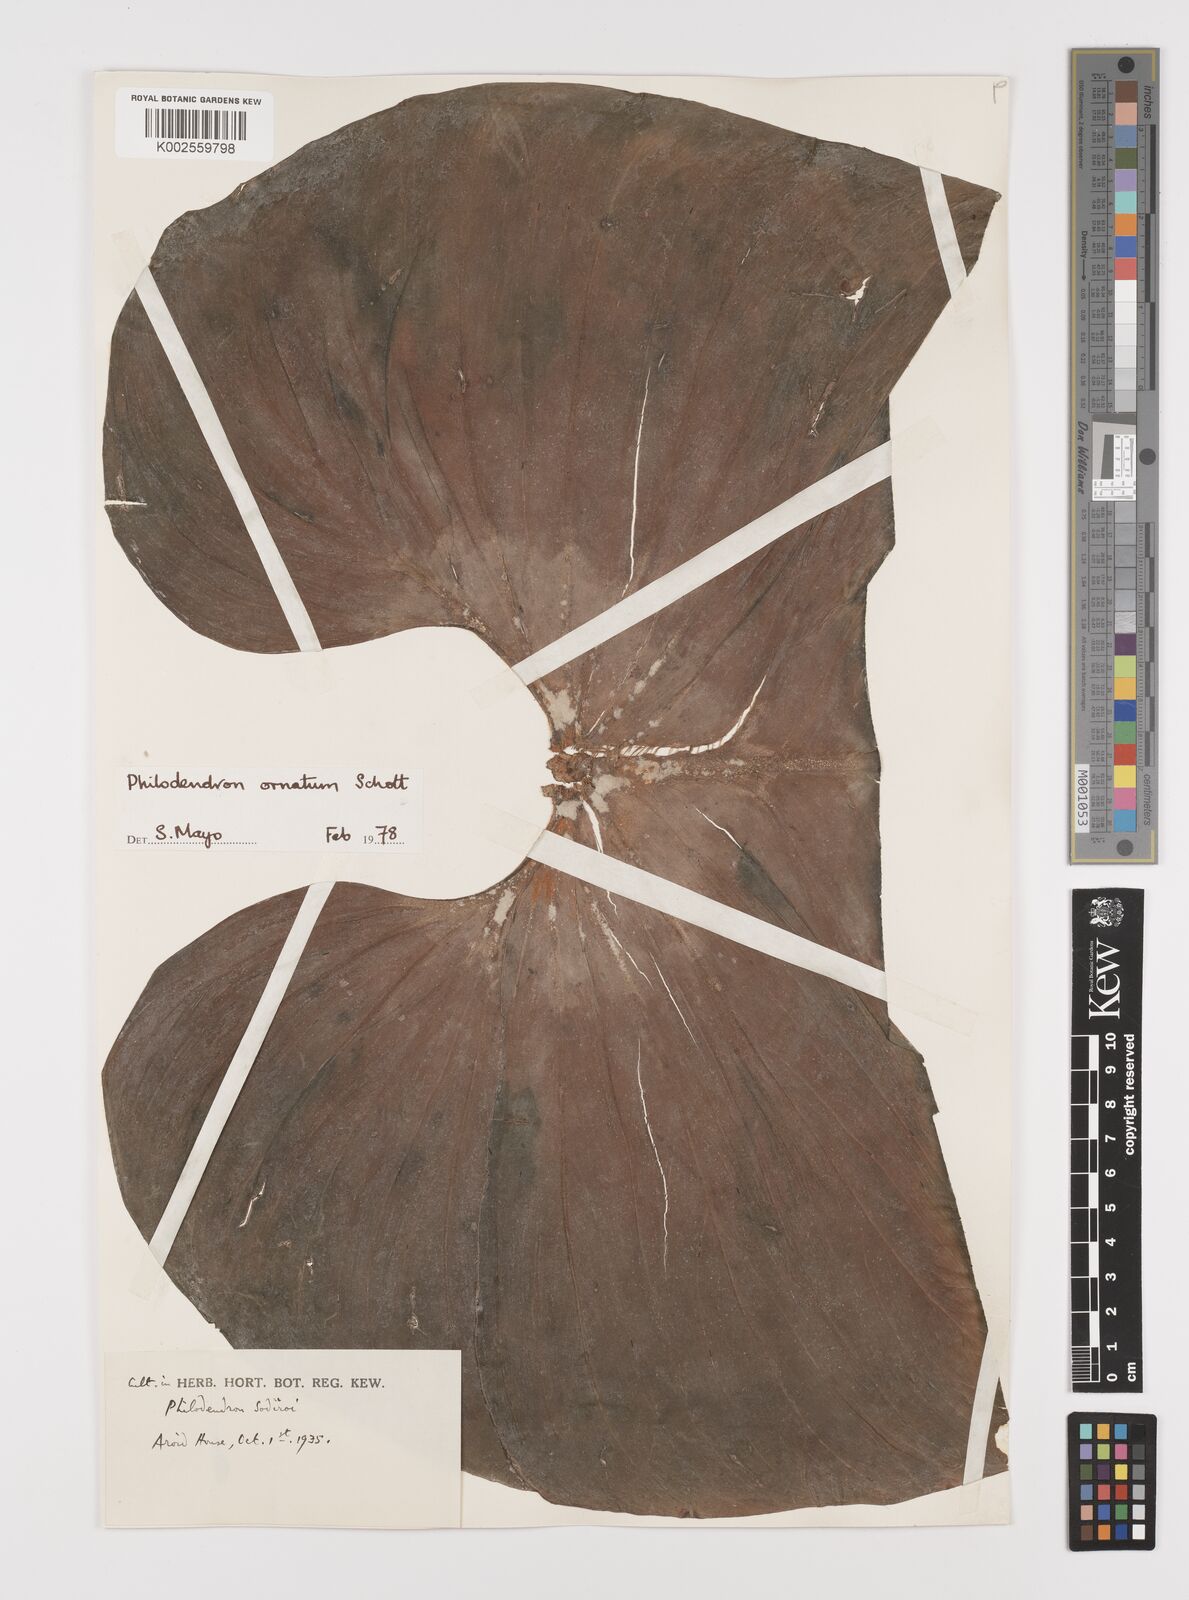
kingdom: Plantae
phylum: Tracheophyta
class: Liliopsida
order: Alismatales
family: Araceae
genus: Philodendron
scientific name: Philodendron ornatum
